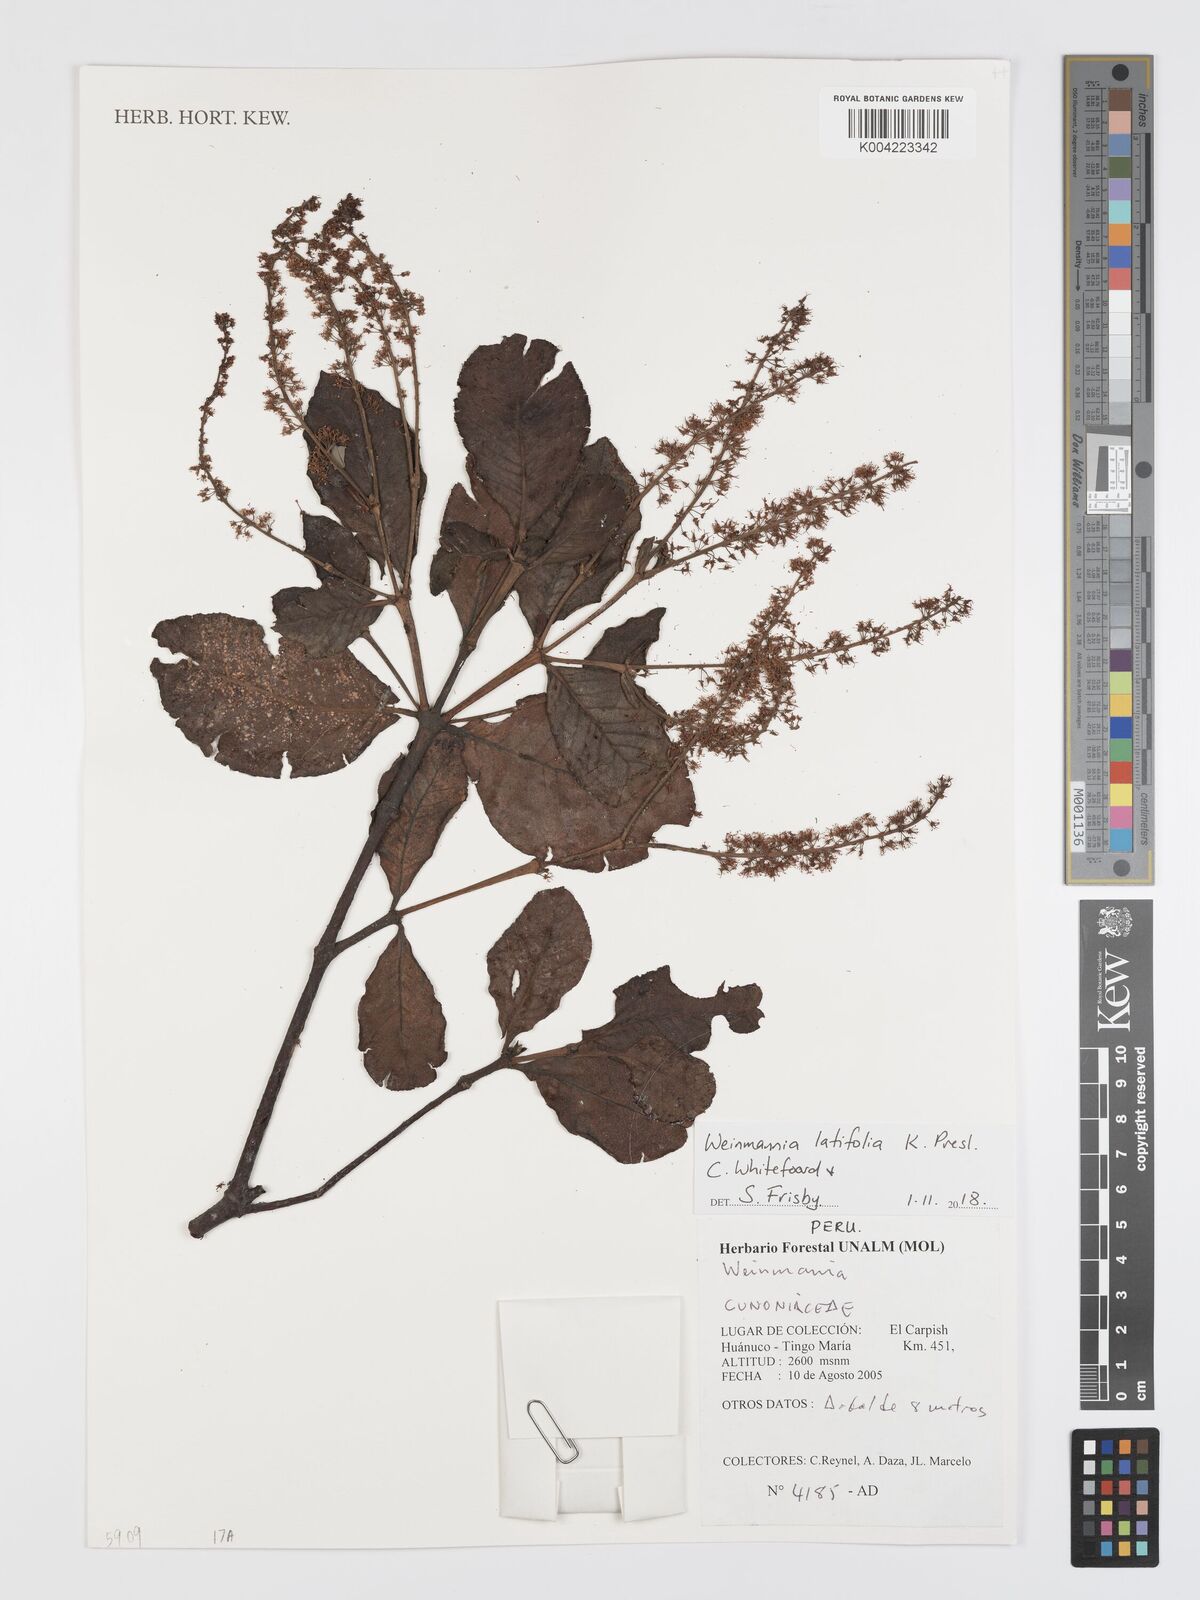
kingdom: Plantae
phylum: Tracheophyta
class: Magnoliopsida
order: Oxalidales
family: Cunoniaceae
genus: Weinmannia
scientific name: Weinmannia latifolia
